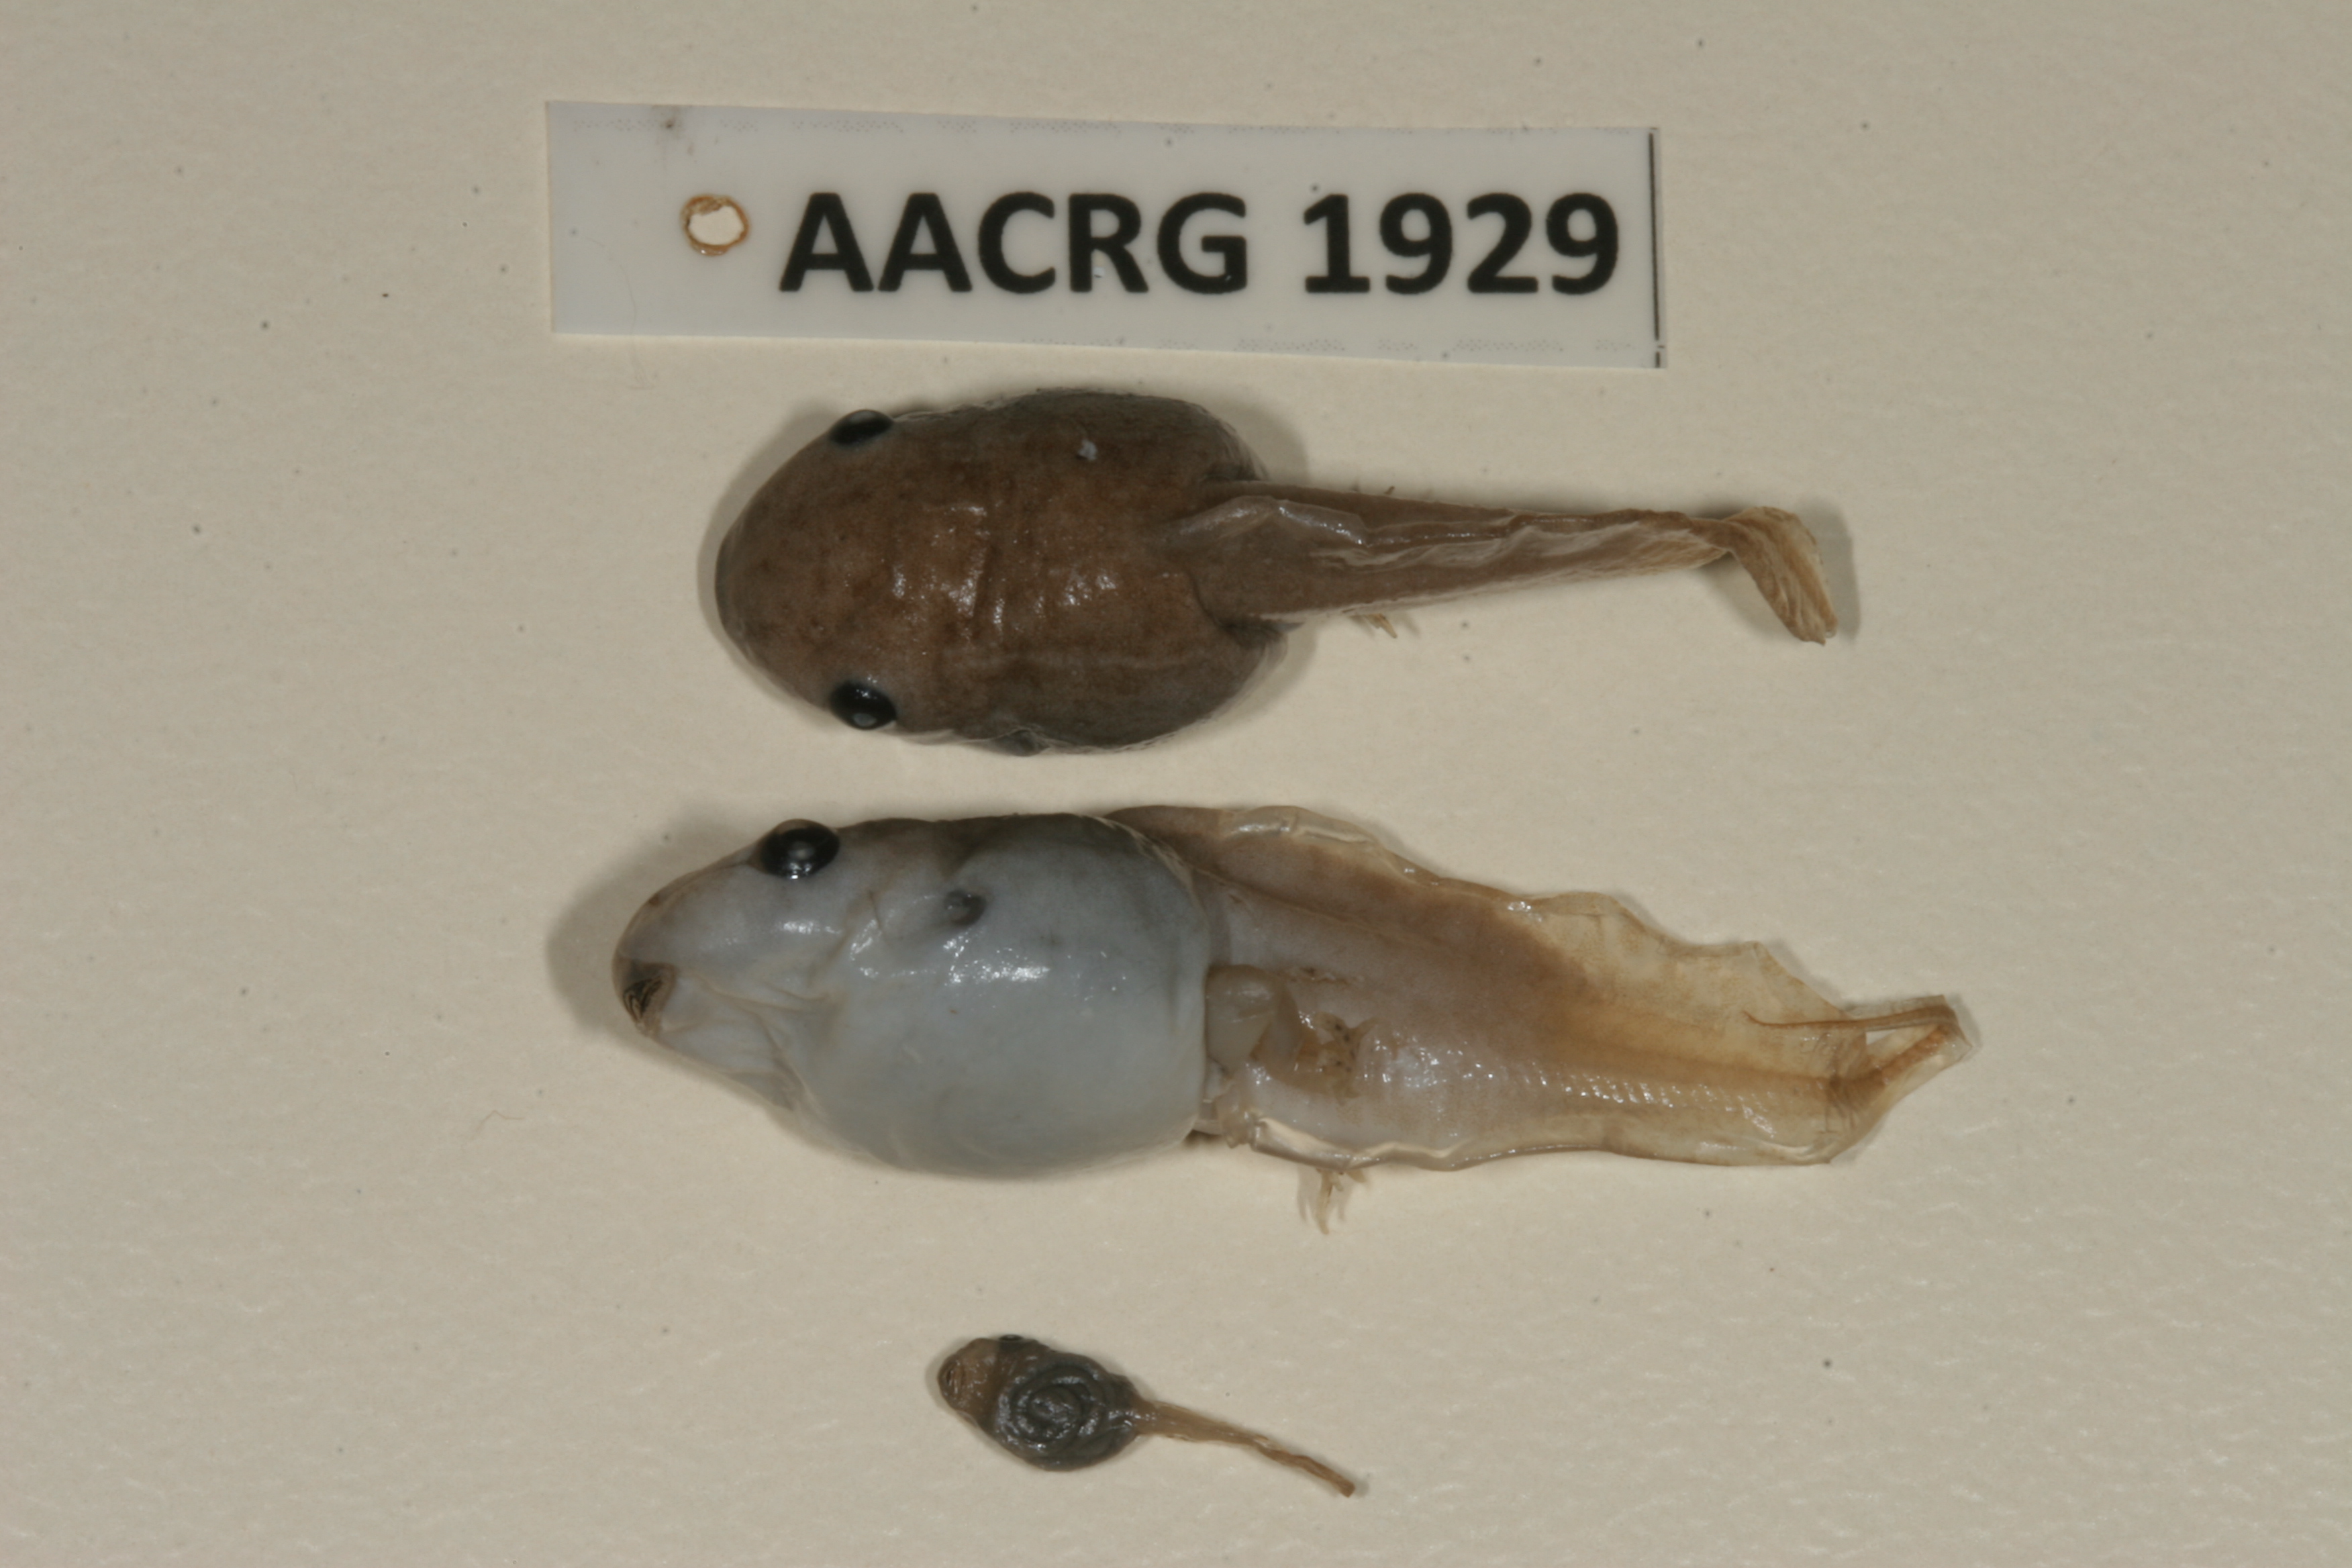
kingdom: Animalia
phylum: Chordata
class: Amphibia
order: Anura
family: Hemisotidae
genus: Hemisus
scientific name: Hemisus guineensis
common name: Guinea snout-burrower
